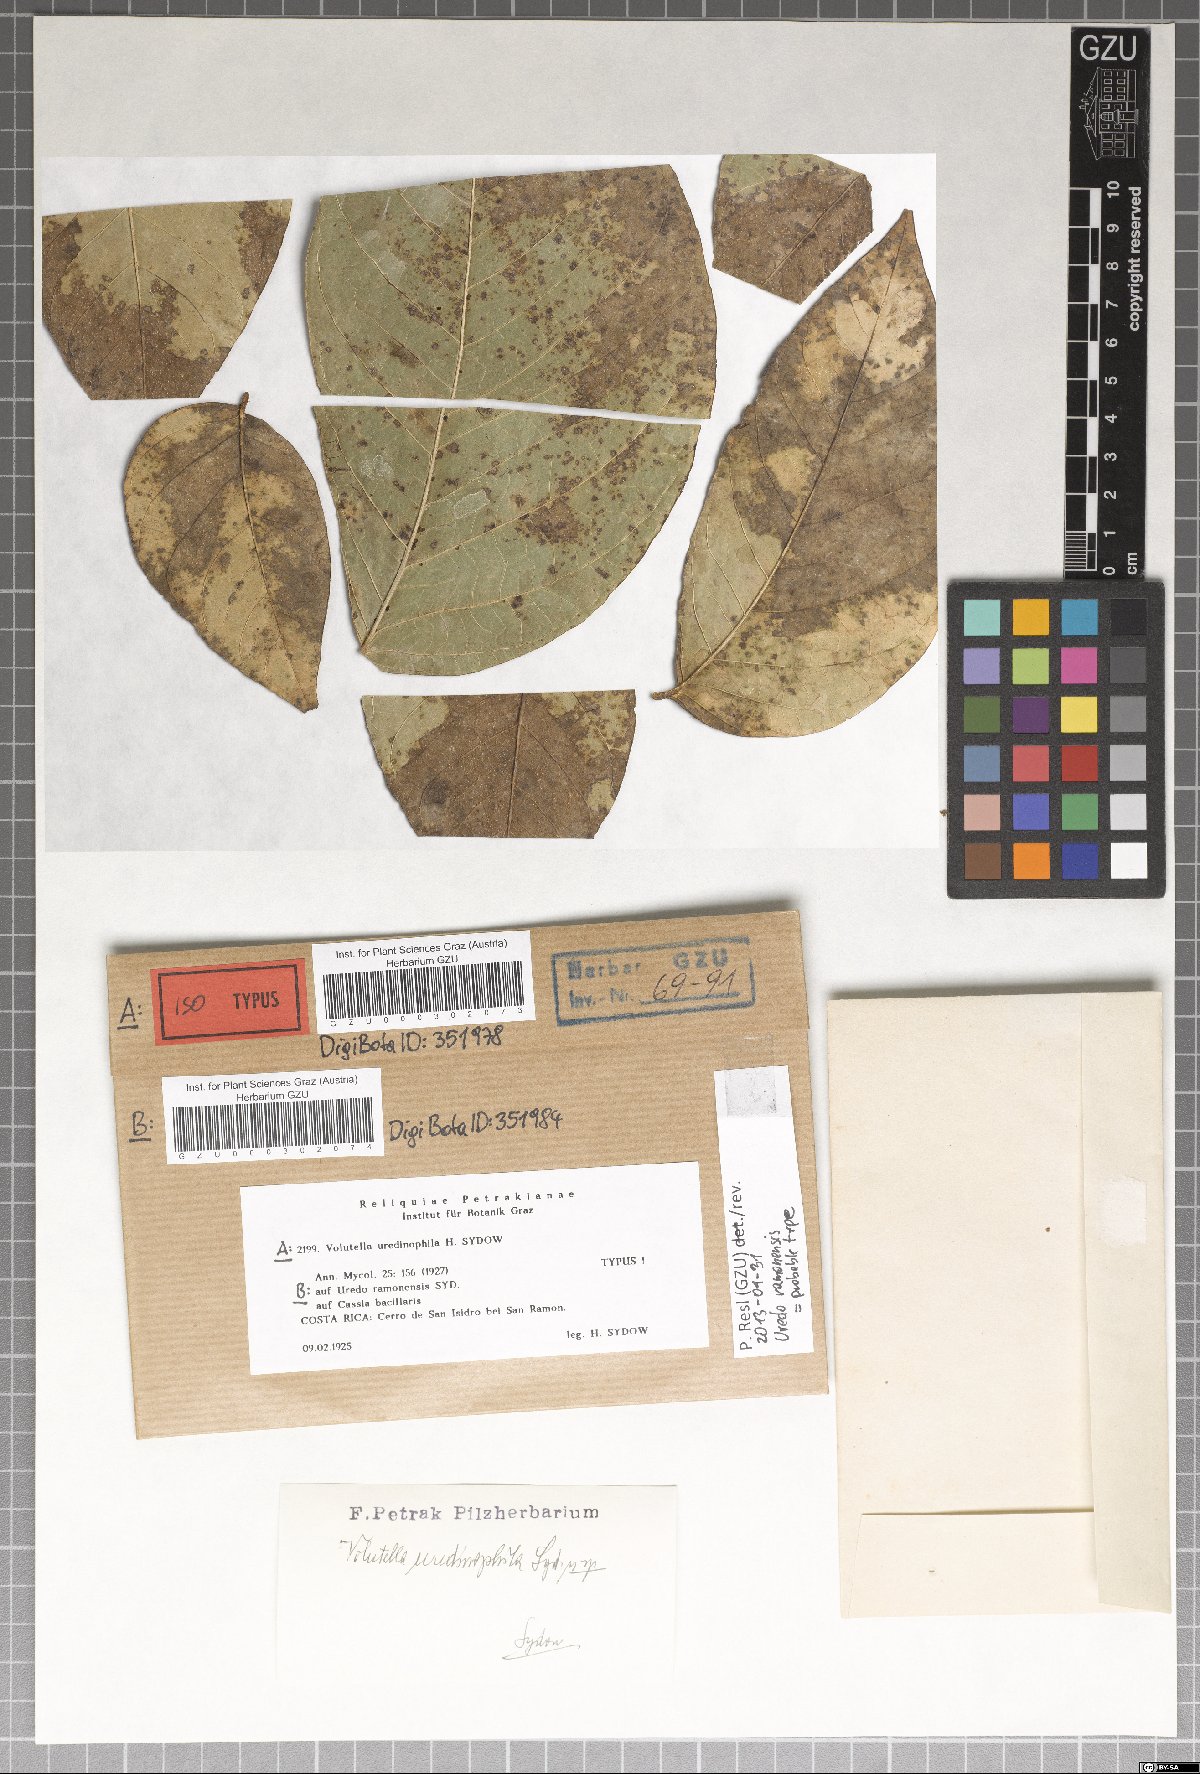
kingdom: Fungi
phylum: Basidiomycota
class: Pucciniomycetes
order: Pucciniales
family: Pucciniaceae
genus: Uredo
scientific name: Uredo ramonensis
